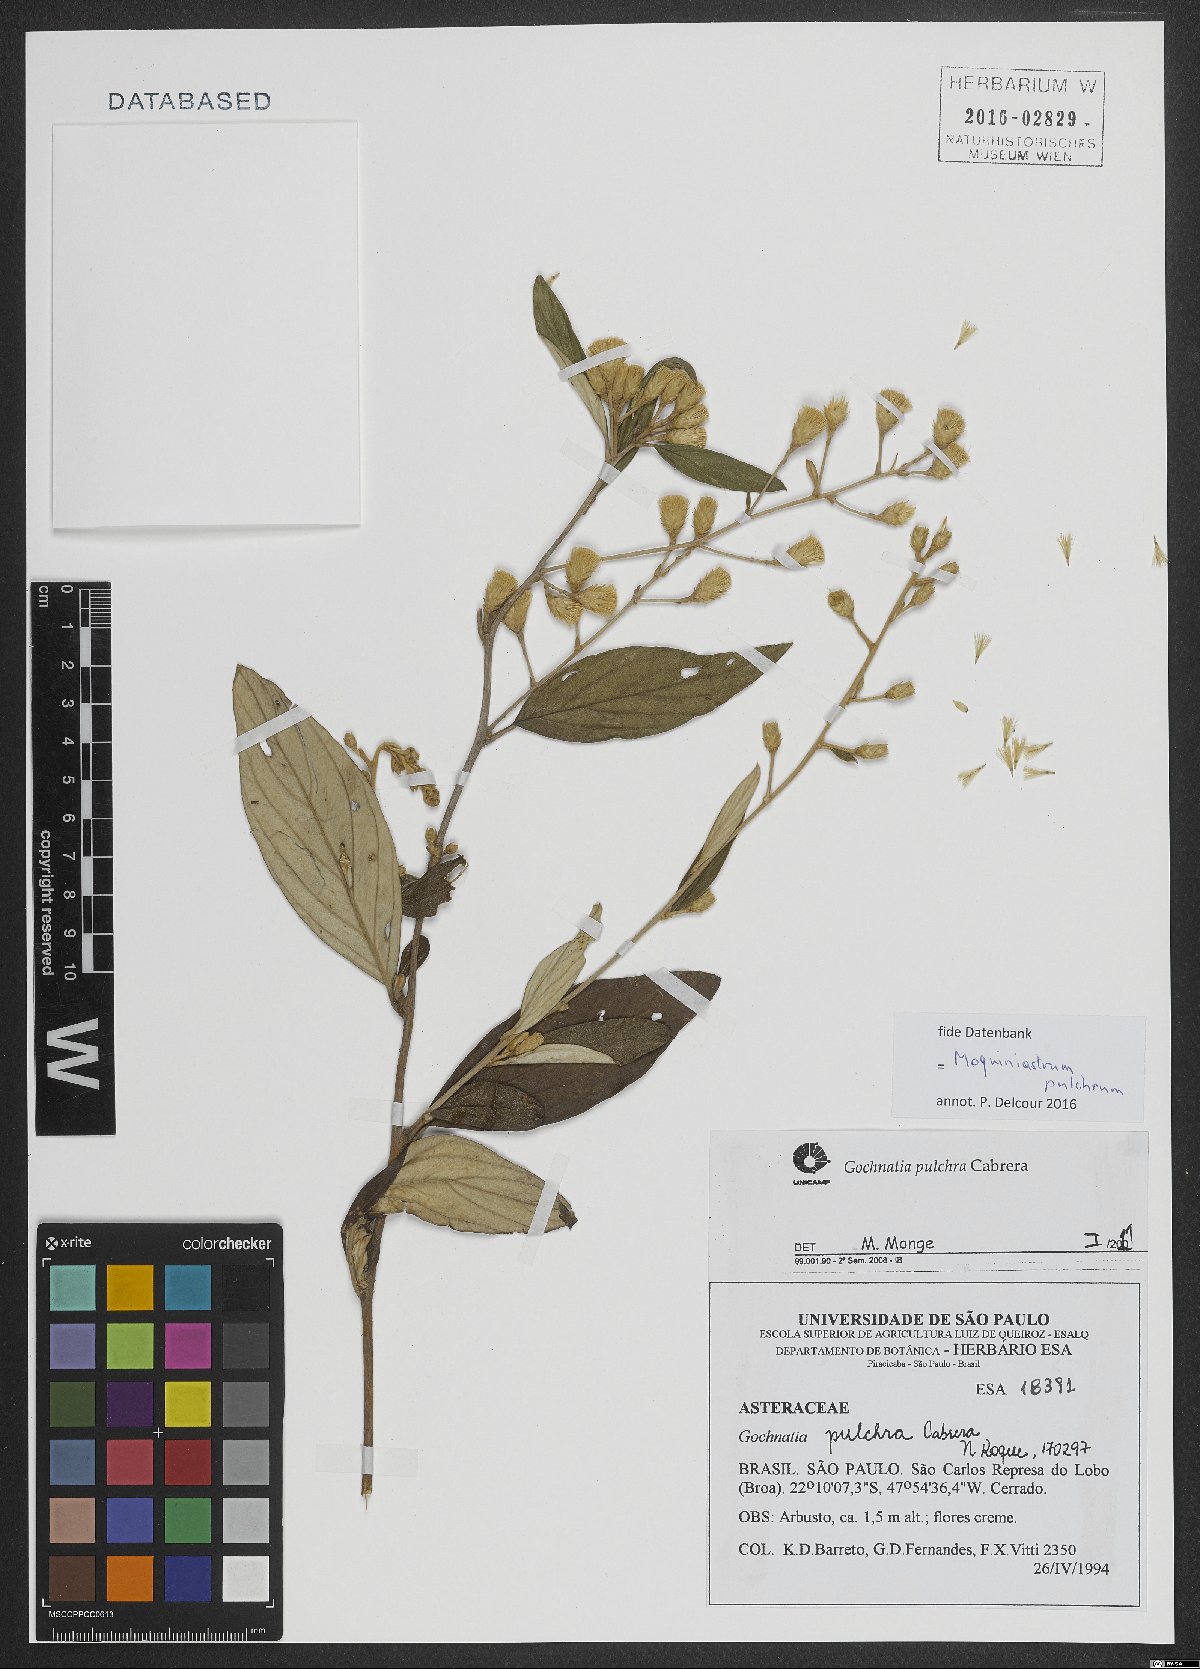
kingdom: Plantae
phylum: Tracheophyta
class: Magnoliopsida
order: Asterales
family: Asteraceae
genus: Moquiniastrum
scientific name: Moquiniastrum pulchrum
